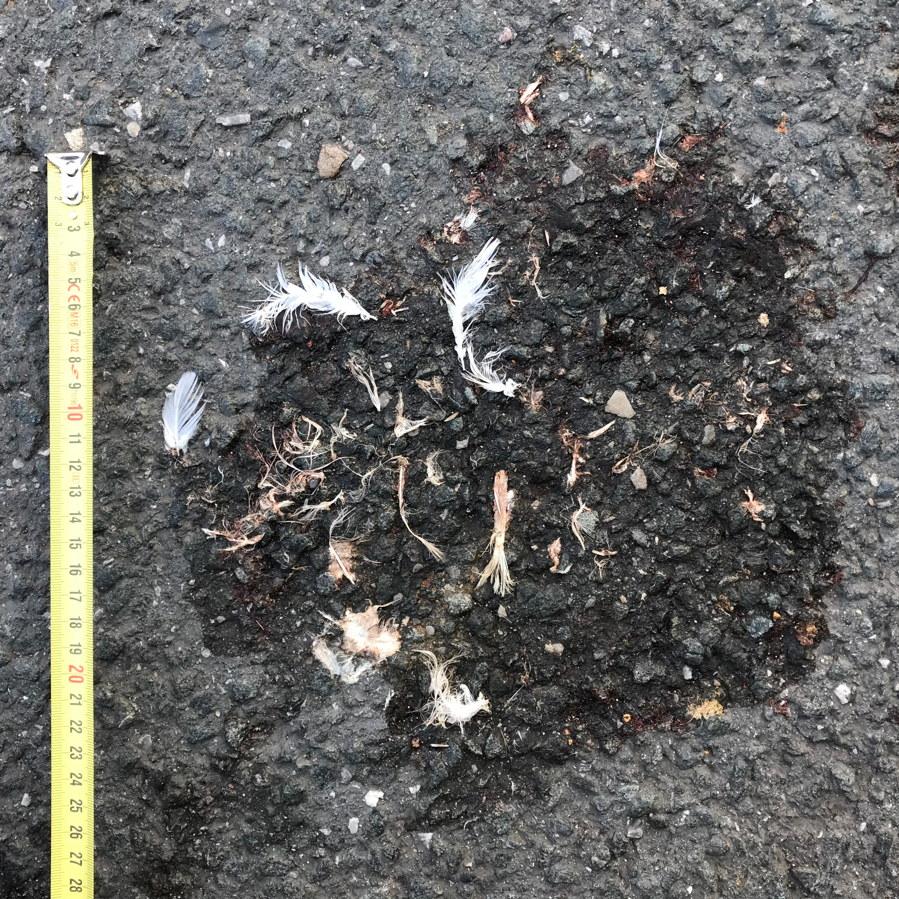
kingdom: Animalia
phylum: Chordata
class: Aves
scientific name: Aves
